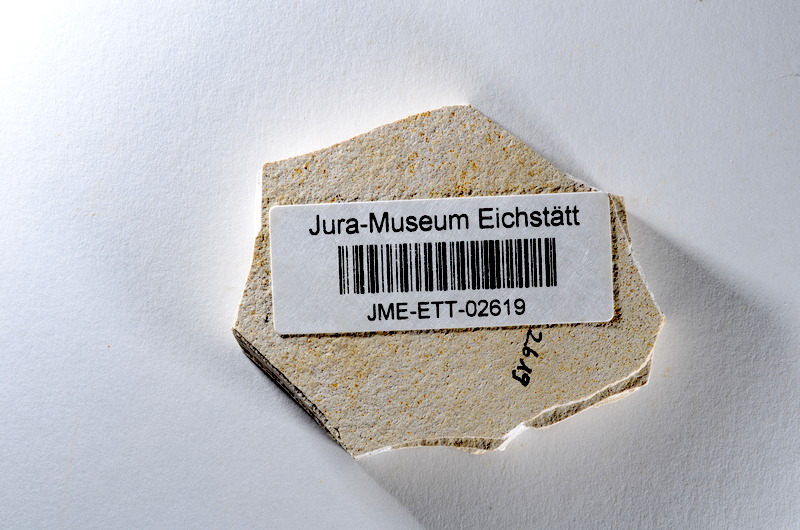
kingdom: Animalia
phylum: Chordata
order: Salmoniformes
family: Orthogonikleithridae
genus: Orthogonikleithrus
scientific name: Orthogonikleithrus hoelli
